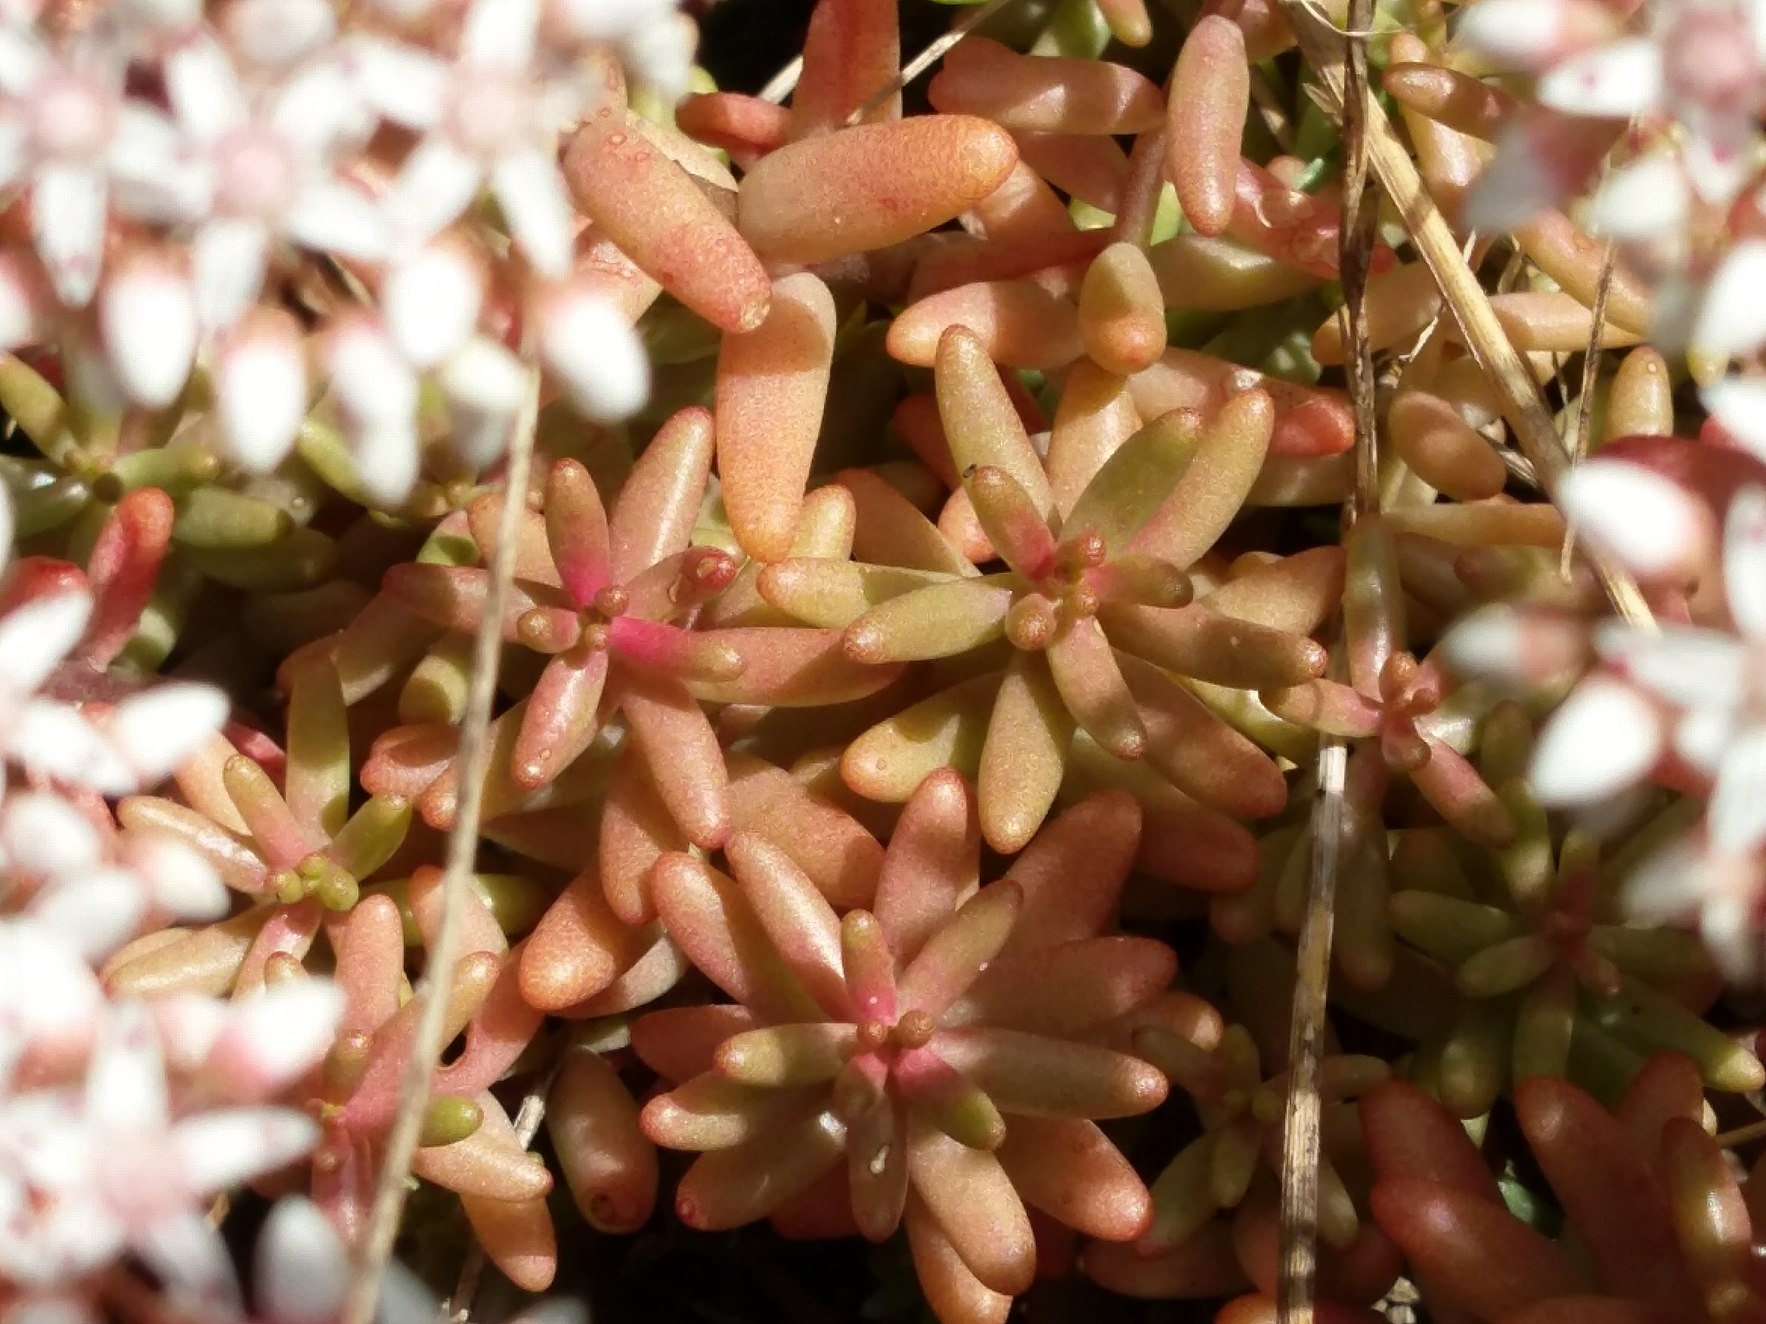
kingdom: Plantae
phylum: Tracheophyta
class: Magnoliopsida
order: Saxifragales
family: Crassulaceae
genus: Sedum
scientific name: Sedum album
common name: Hvid stenurt
